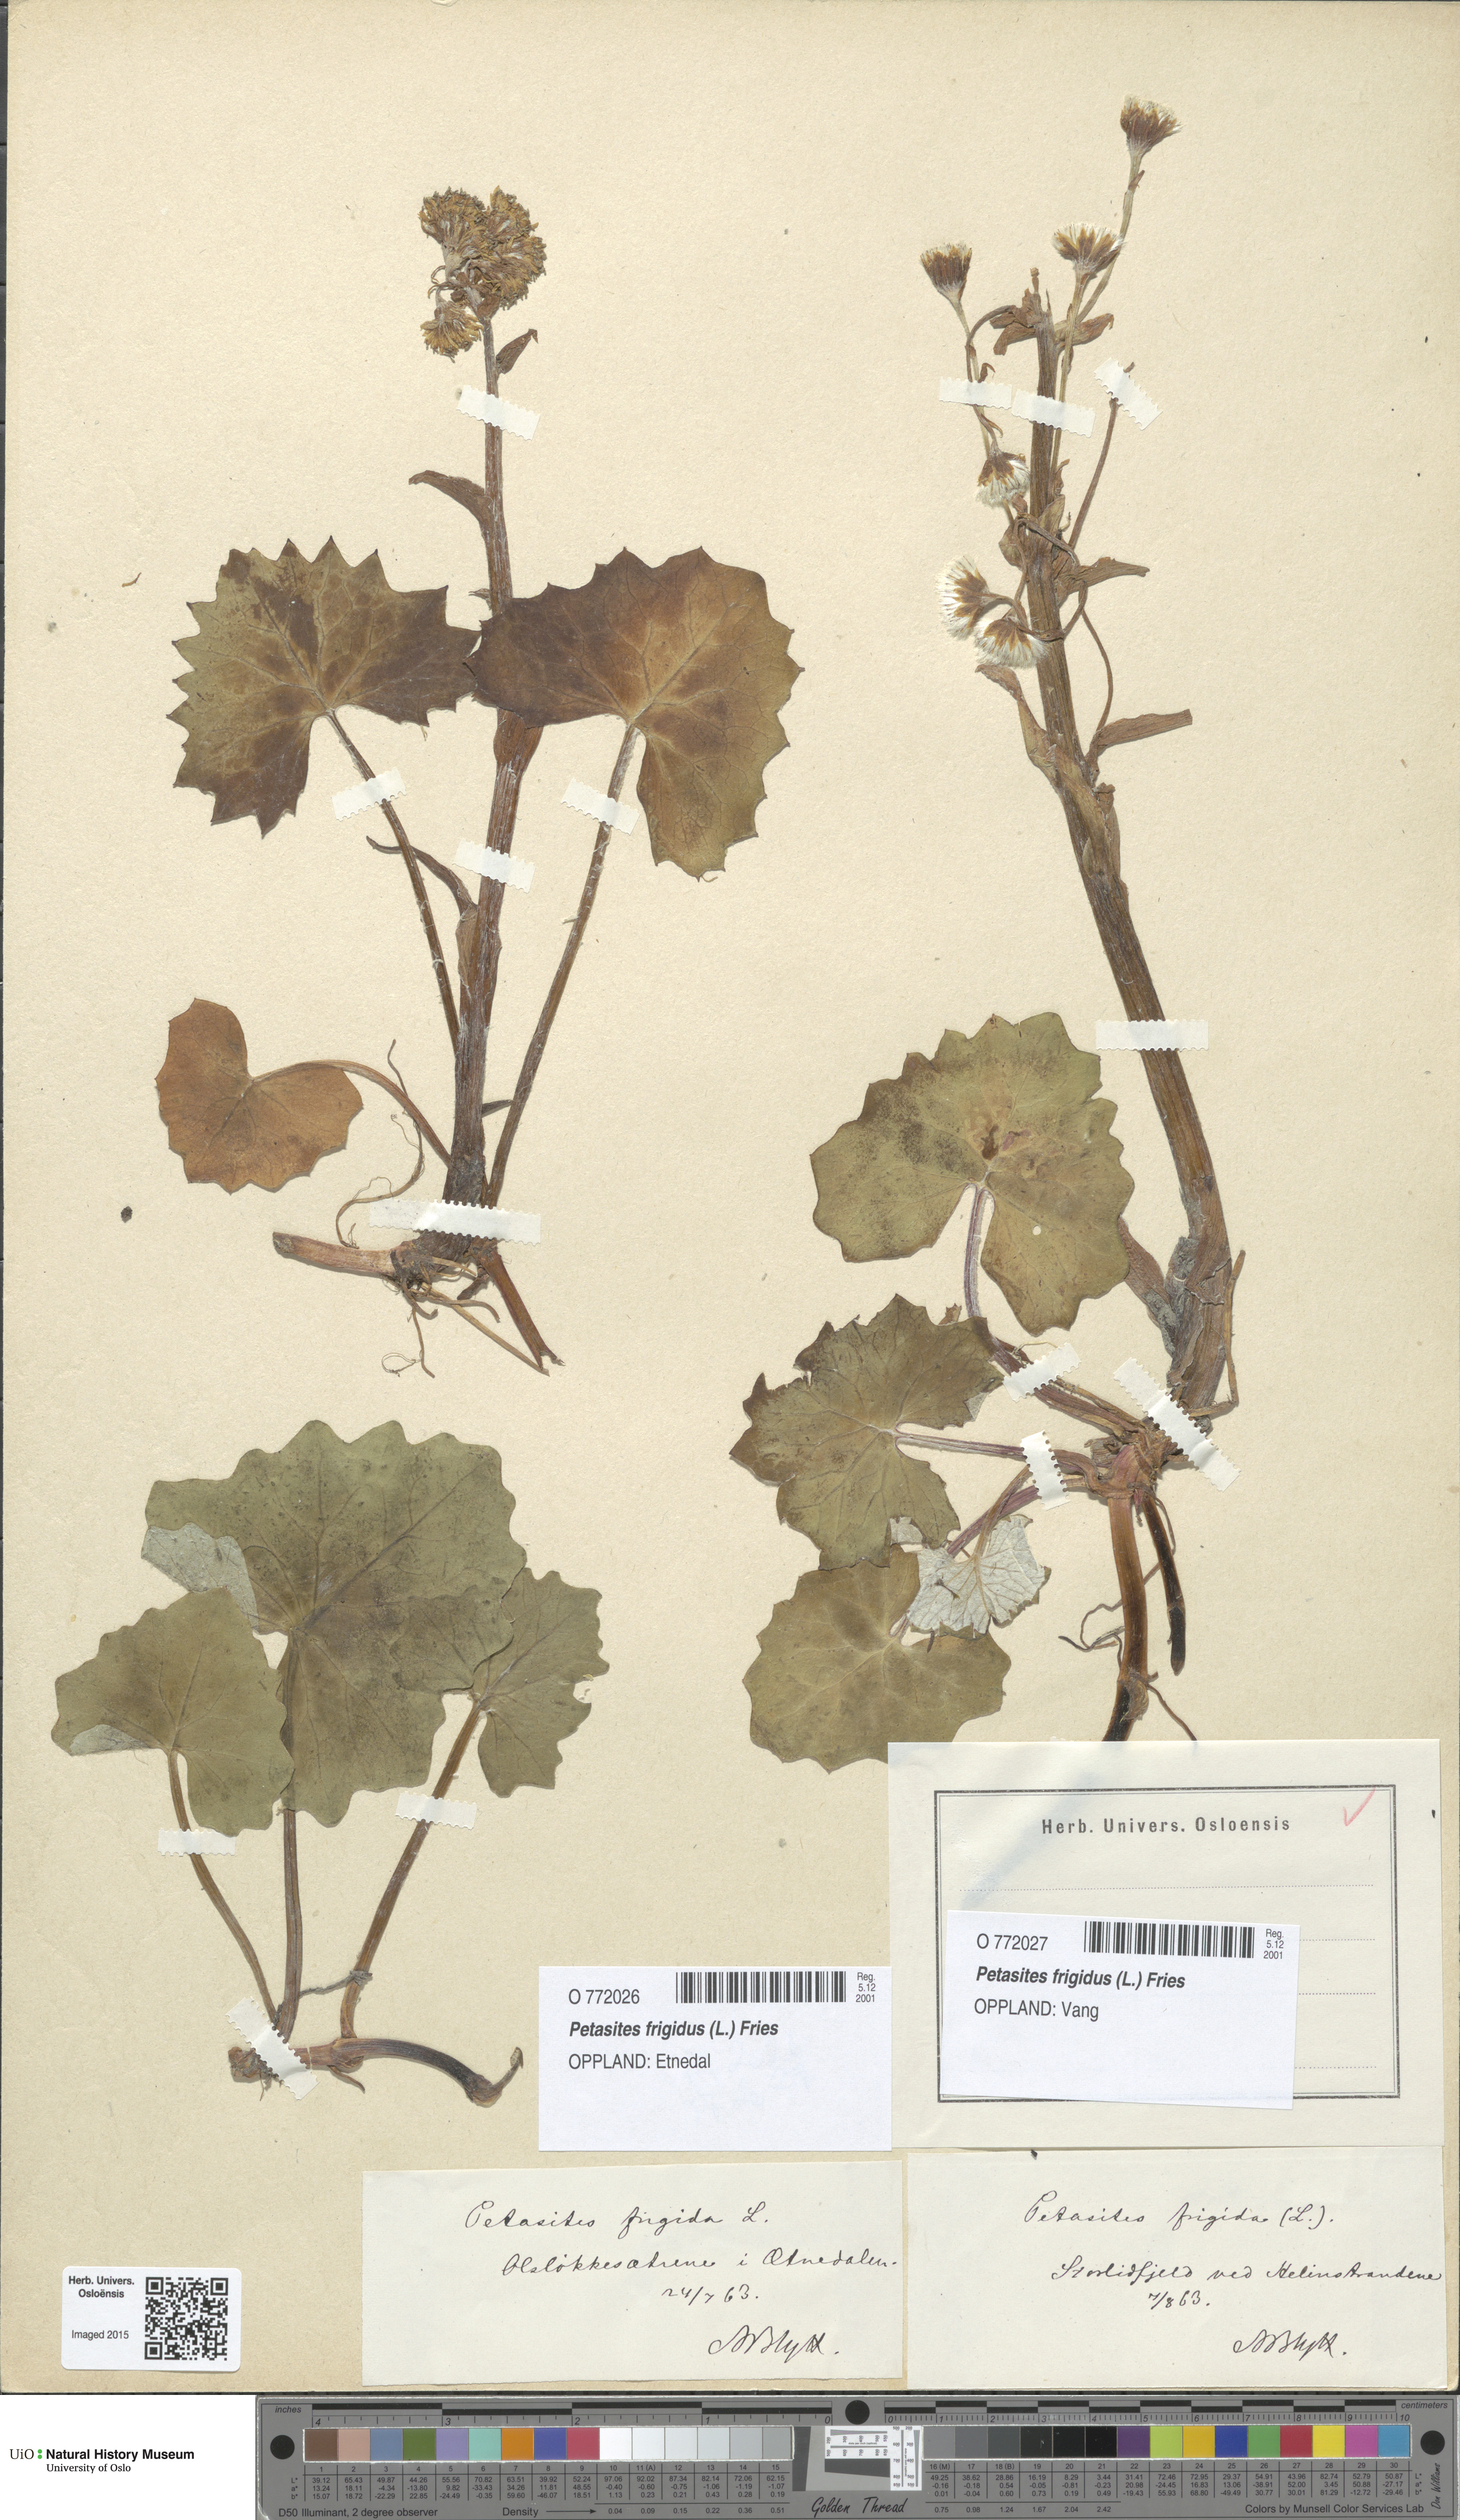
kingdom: Plantae
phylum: Tracheophyta
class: Magnoliopsida
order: Asterales
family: Asteraceae
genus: Petasites
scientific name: Petasites frigidus
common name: Arctic butterbur
